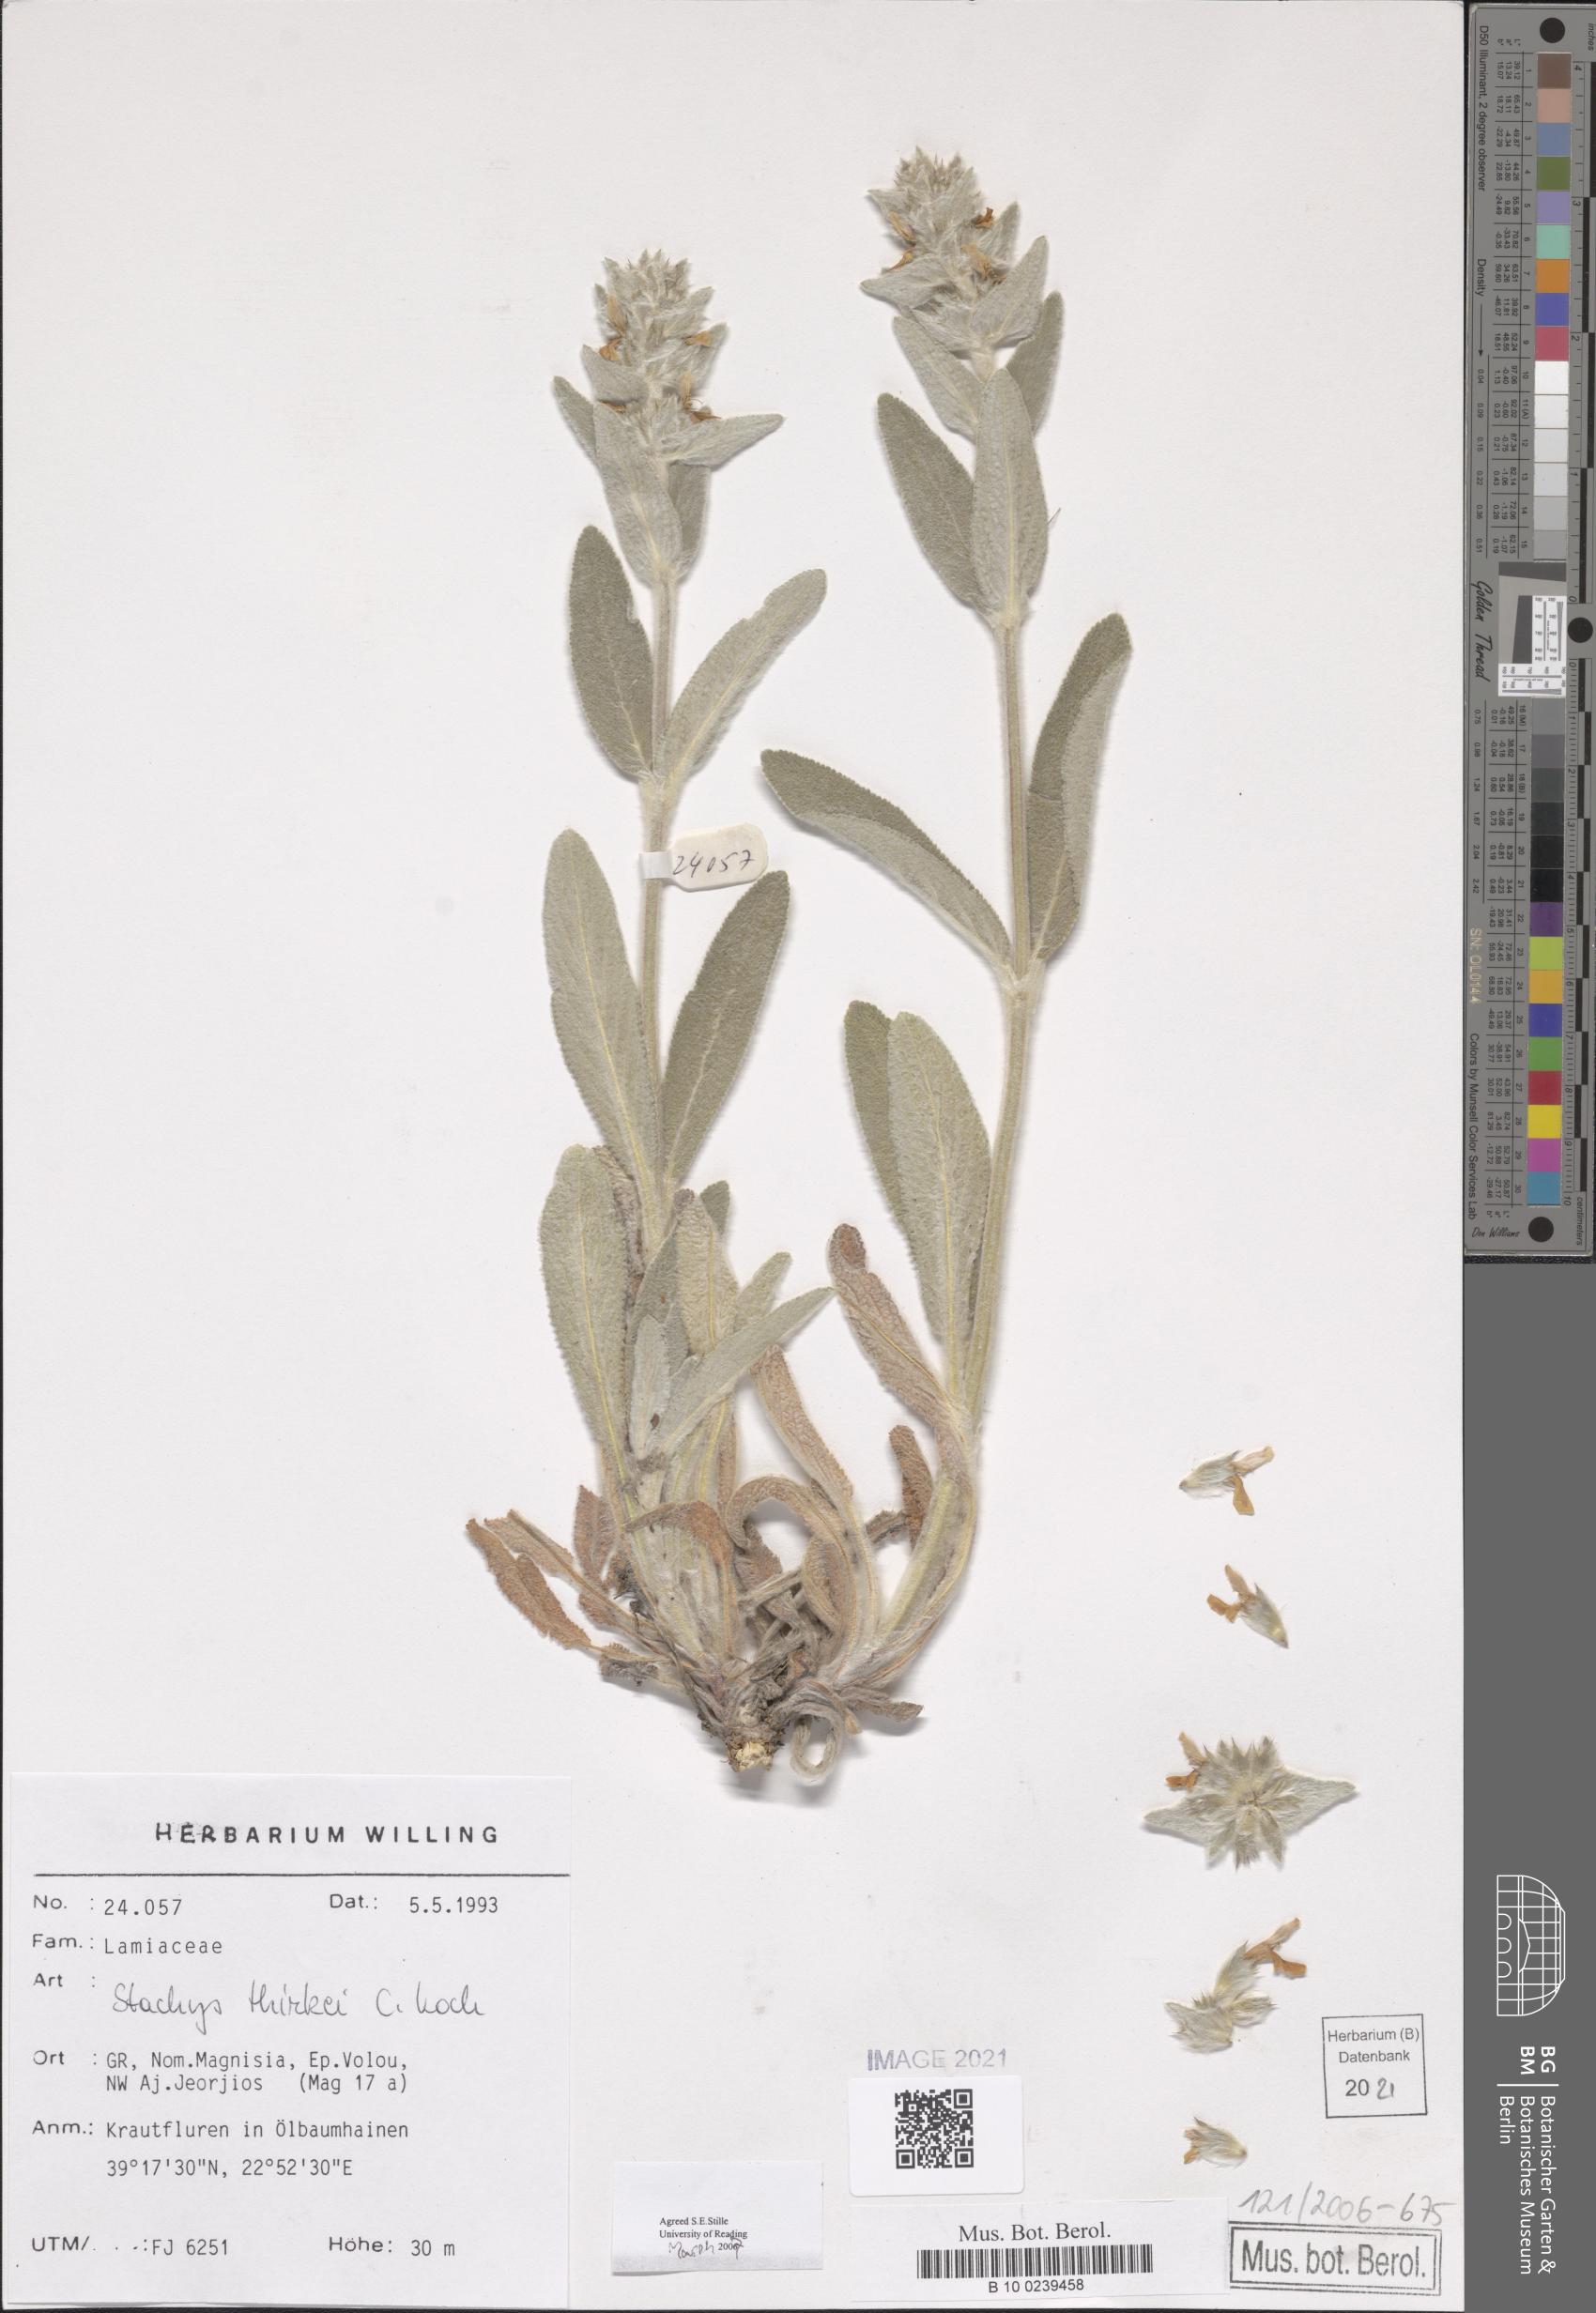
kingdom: Plantae
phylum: Tracheophyta
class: Magnoliopsida
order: Lamiales
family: Lamiaceae
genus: Stachys
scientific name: Stachys thirkei
